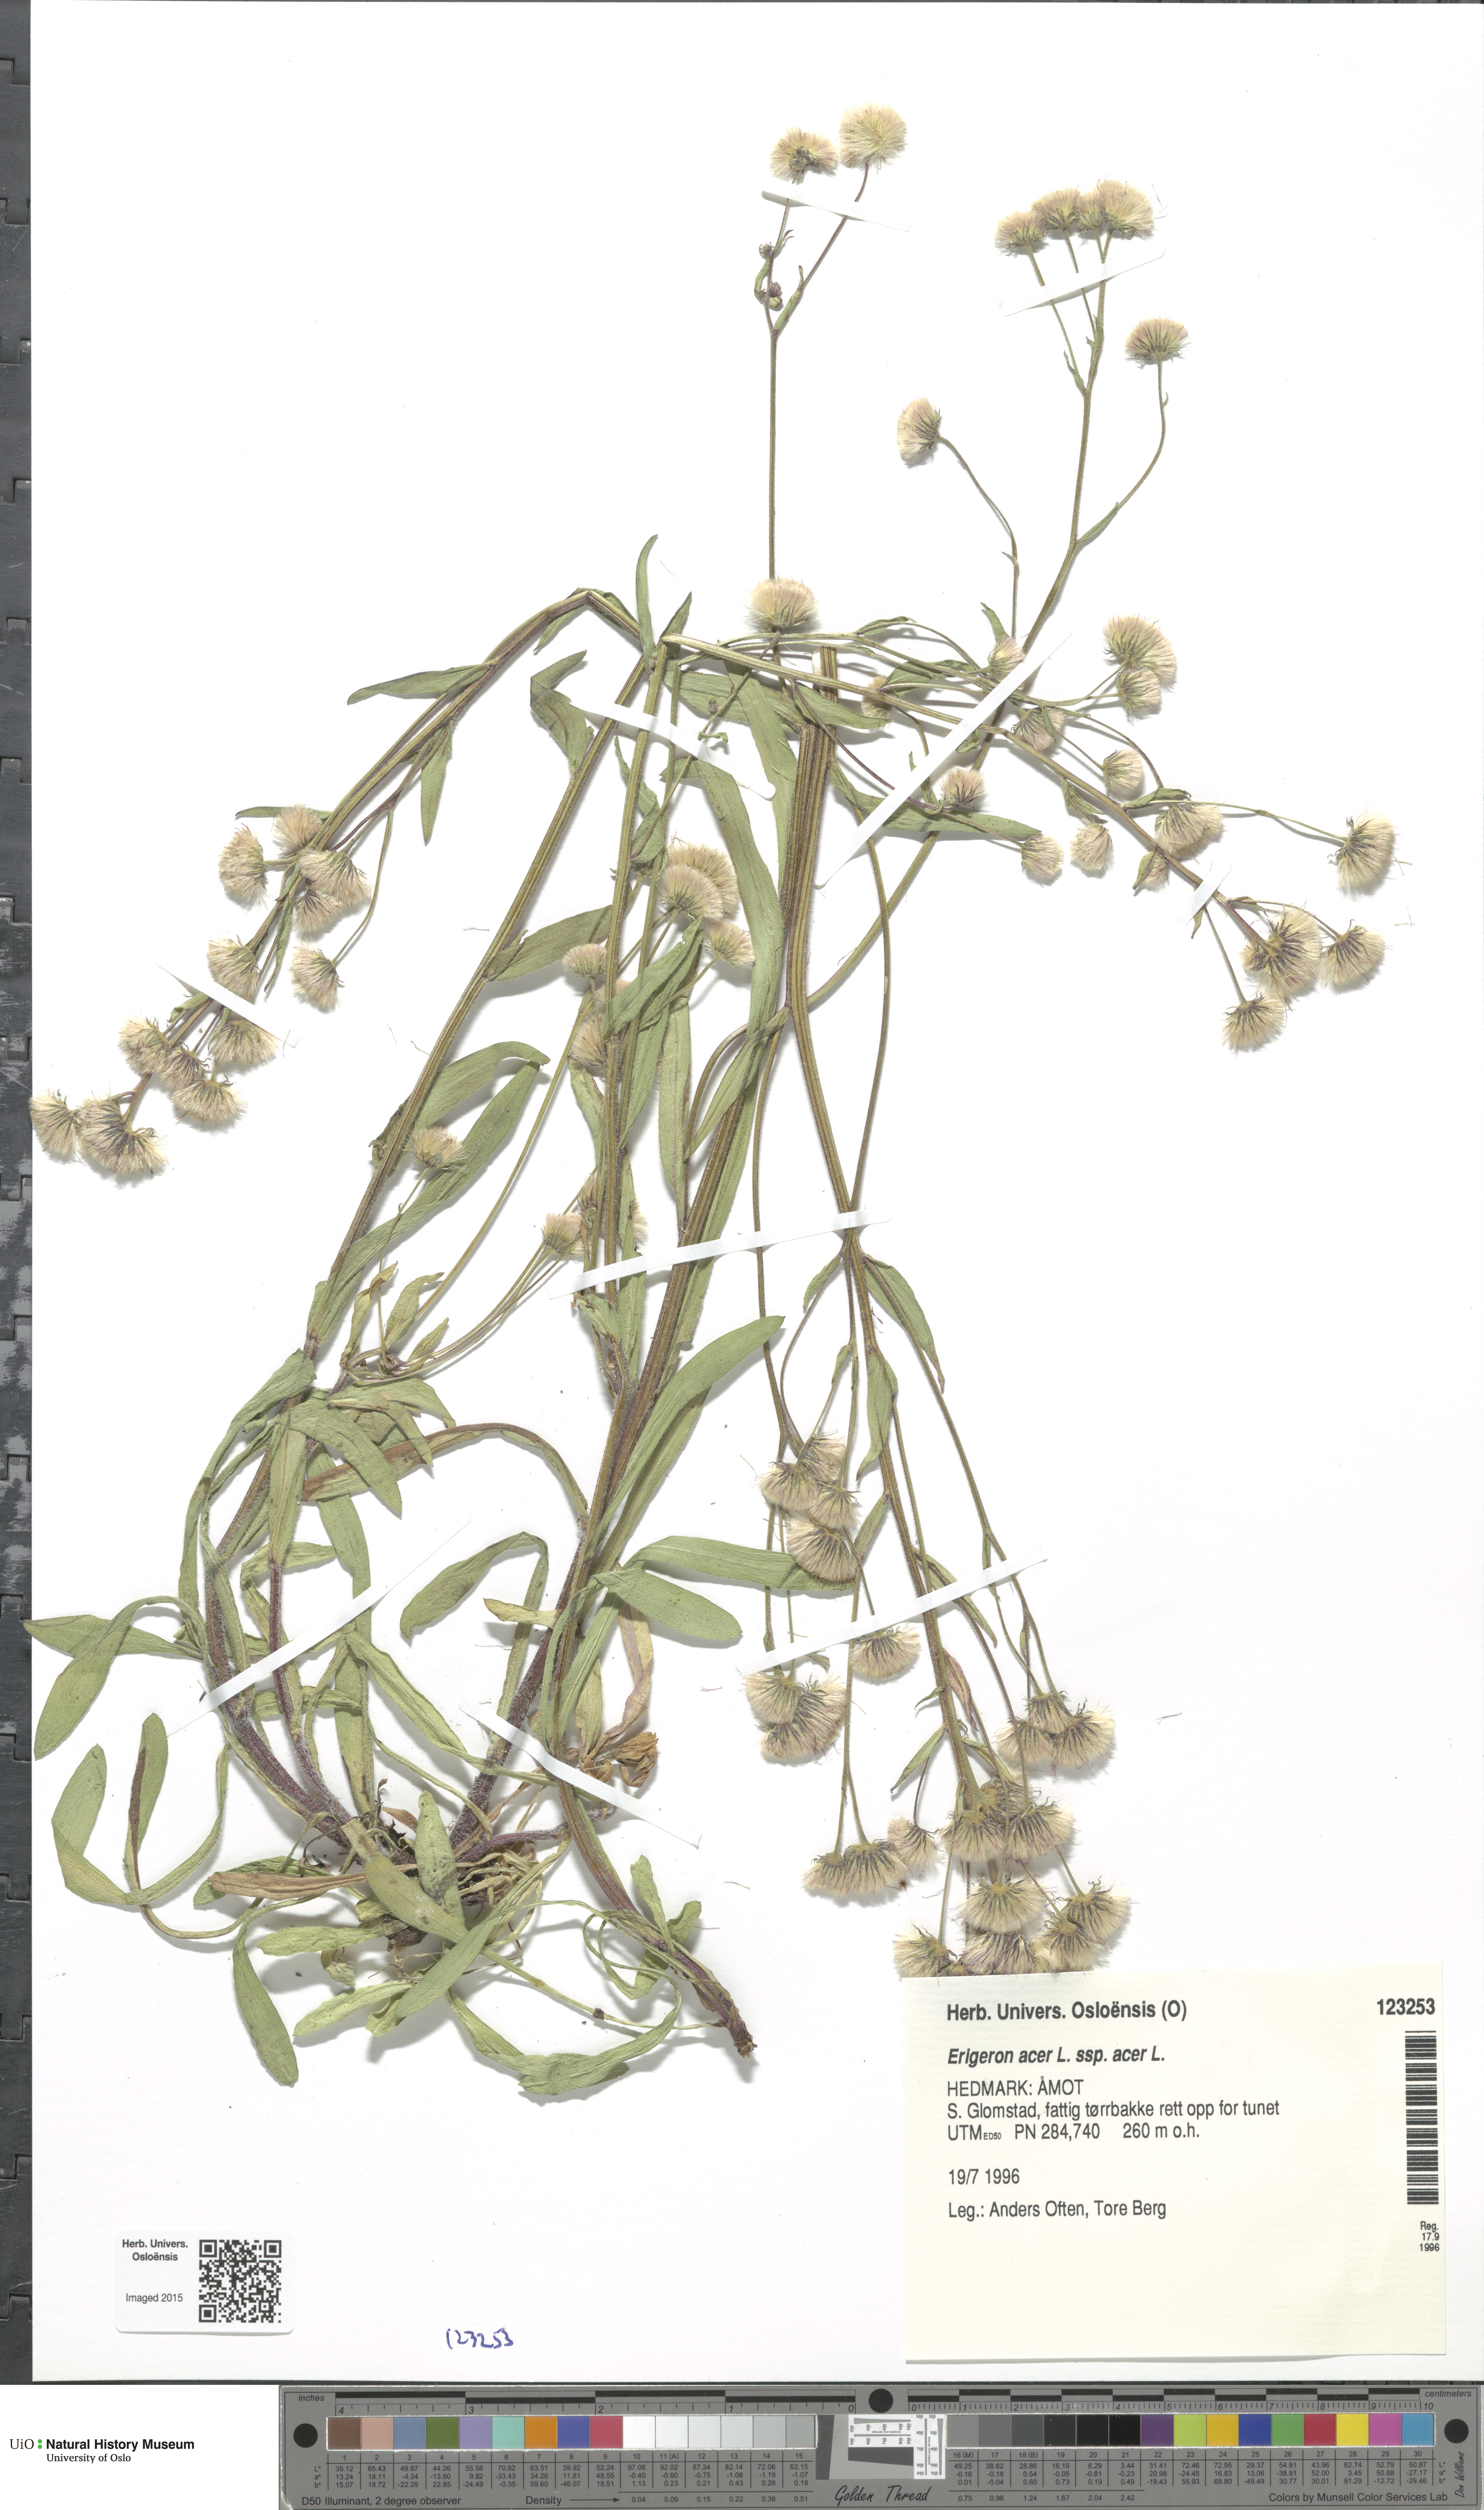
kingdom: Plantae
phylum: Tracheophyta
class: Magnoliopsida
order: Asterales
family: Asteraceae
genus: Erigeron
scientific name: Erigeron acris
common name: Blue fleabane
